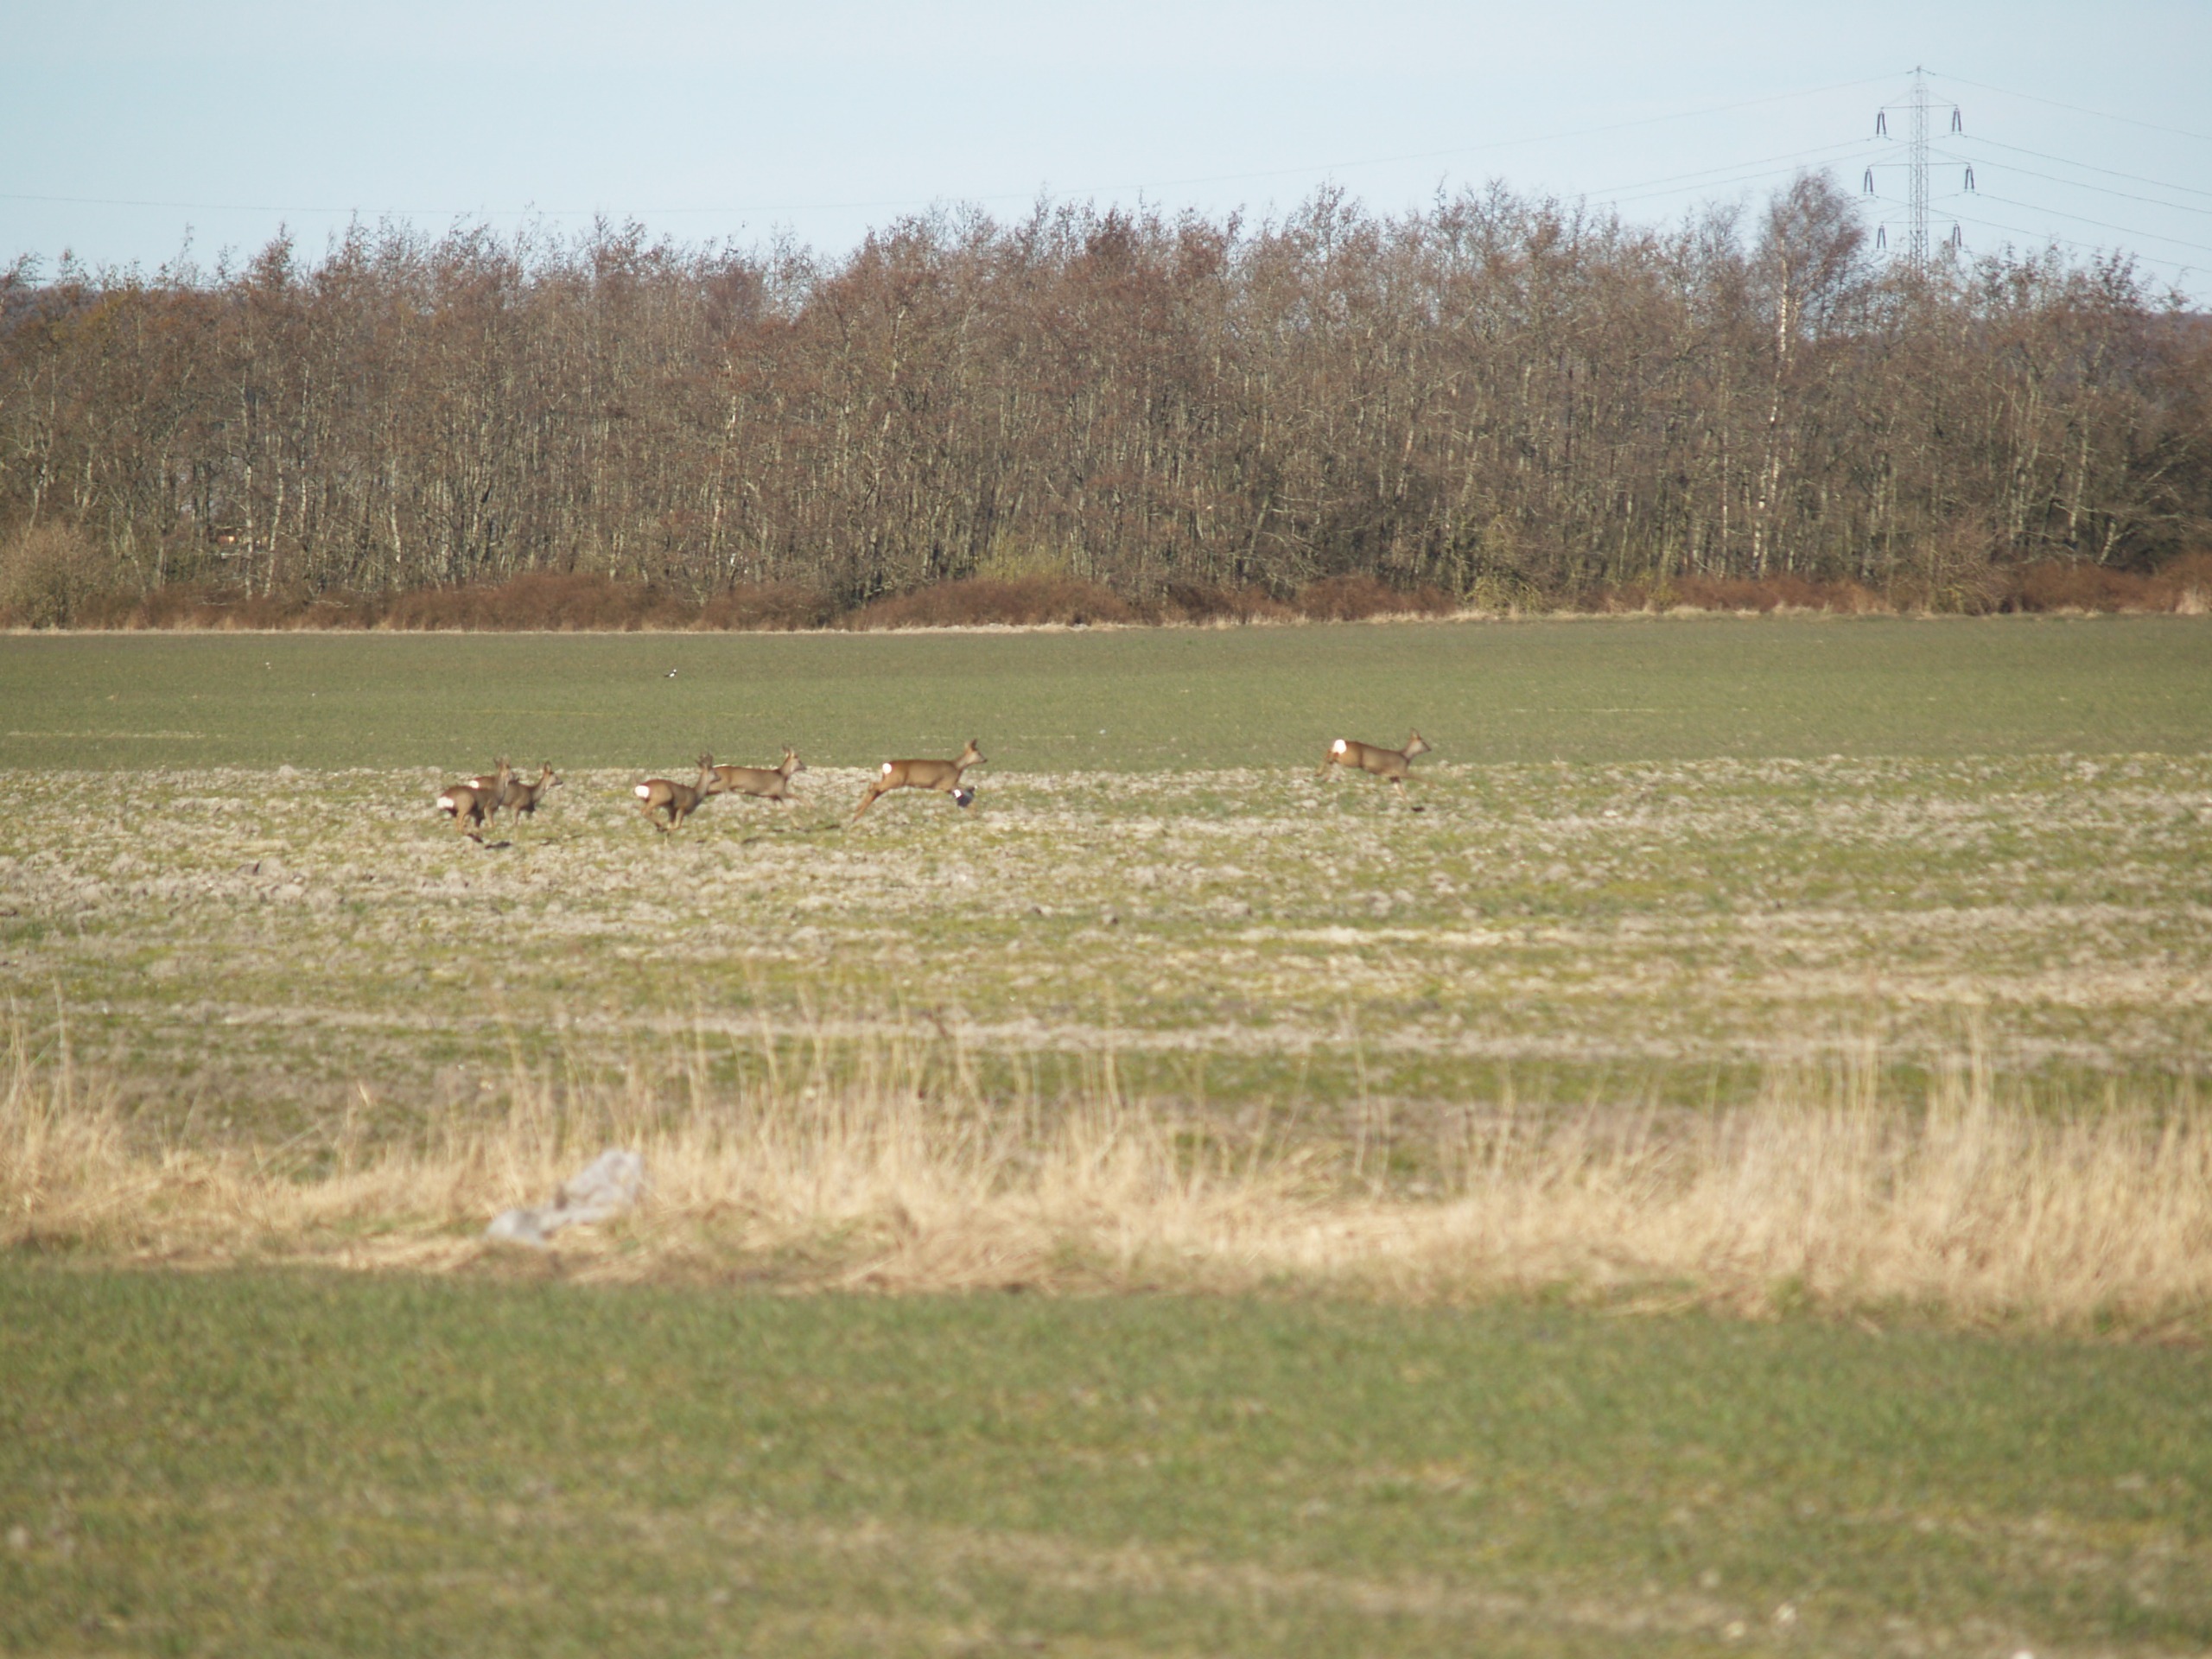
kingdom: Animalia
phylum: Chordata
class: Mammalia
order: Artiodactyla
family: Cervidae
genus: Capreolus
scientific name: Capreolus capreolus
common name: Rådyr
